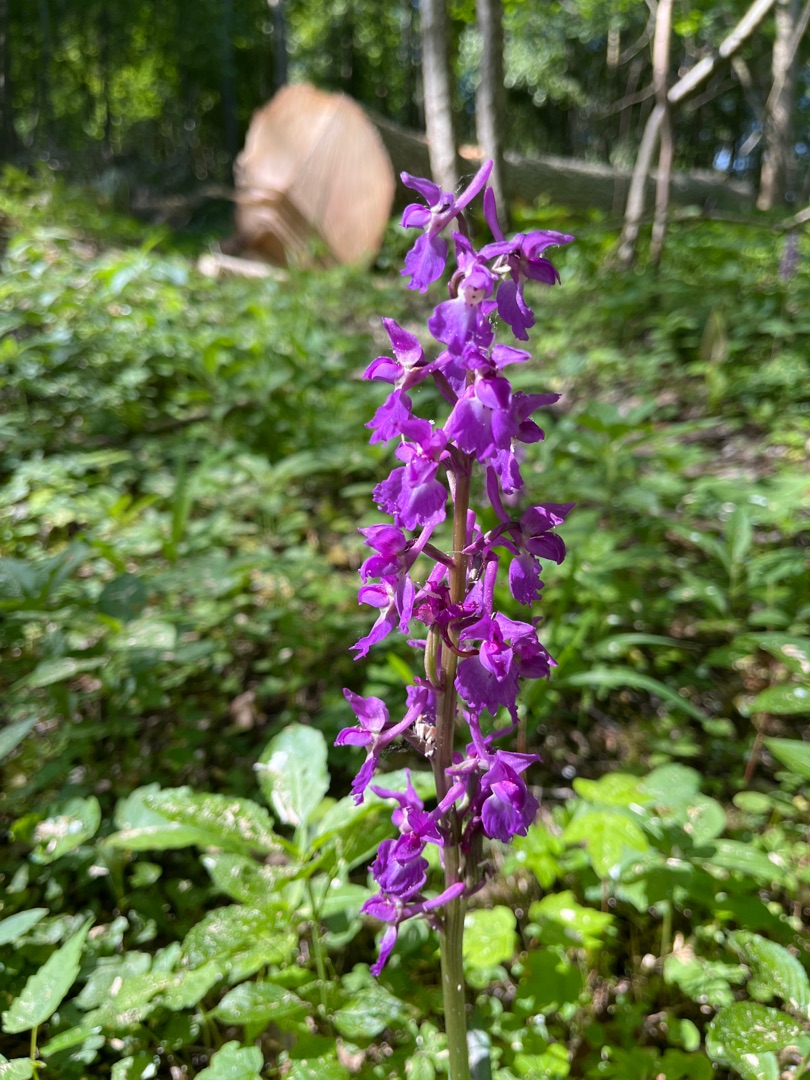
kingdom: Plantae
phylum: Tracheophyta
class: Liliopsida
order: Asparagales
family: Orchidaceae
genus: Orchis
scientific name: Orchis mascula
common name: Tyndakset gøgeurt
